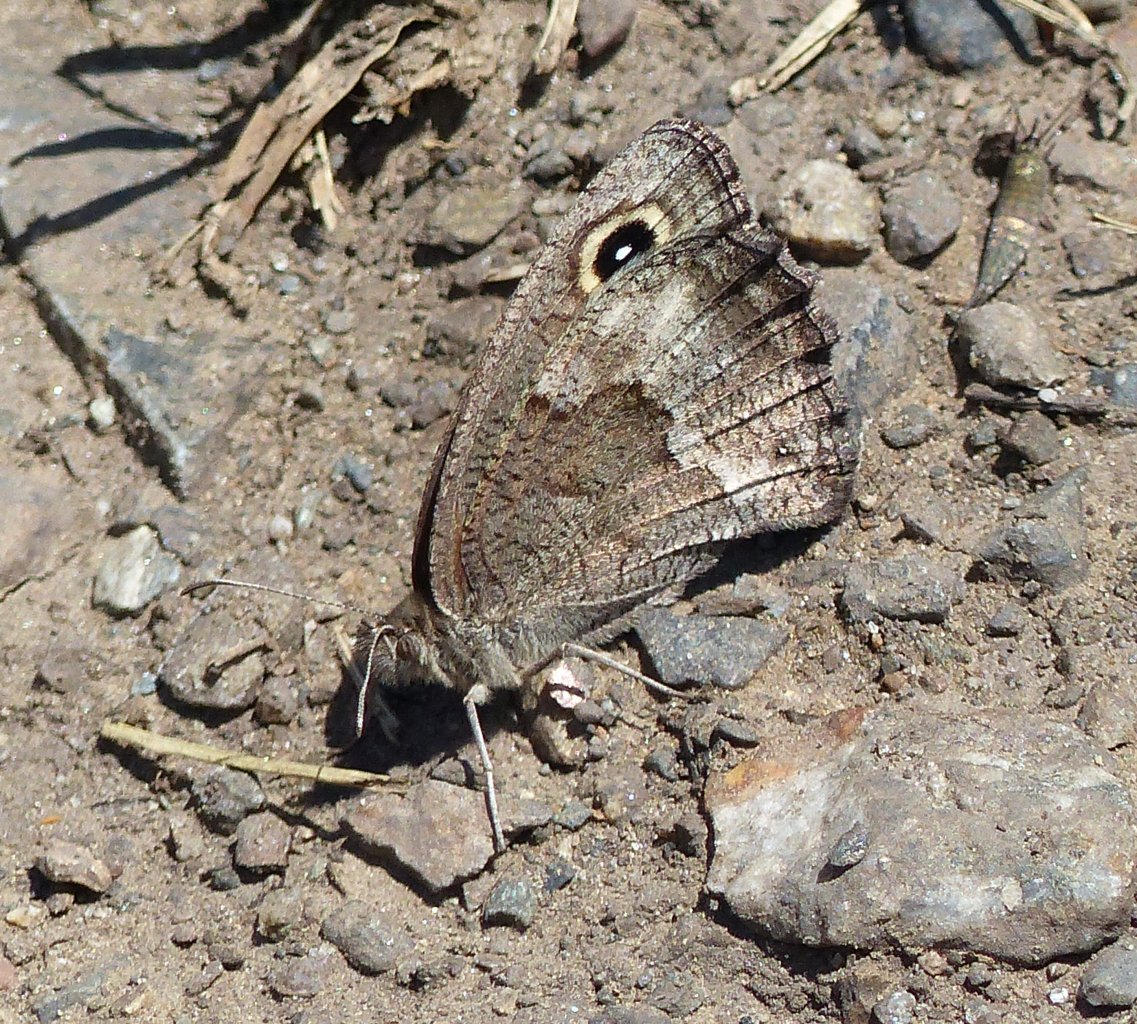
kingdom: Animalia
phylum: Arthropoda
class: Insecta
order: Lepidoptera
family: Nymphalidae
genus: Cercyonis
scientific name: Cercyonis sthenele
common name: Great Basin Wood-Nymph
